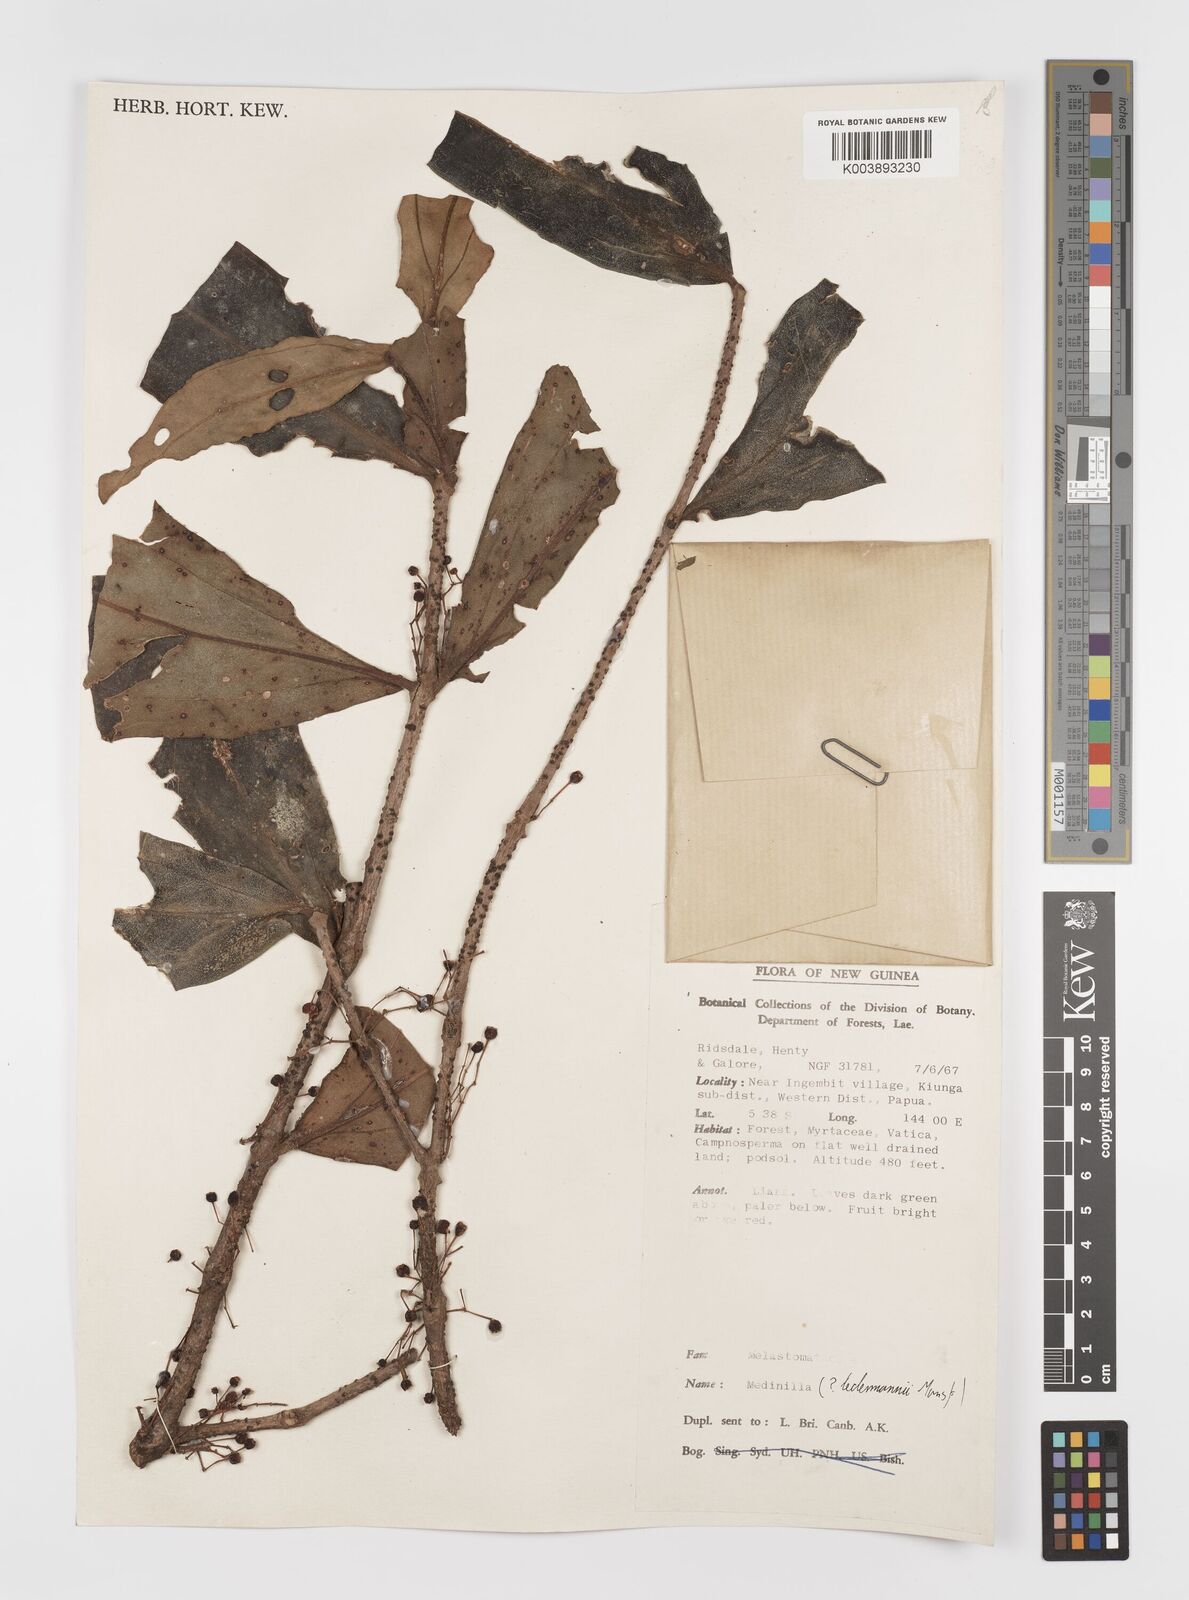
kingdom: Plantae
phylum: Tracheophyta
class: Magnoliopsida
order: Myrtales
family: Melastomataceae
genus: Medinilla
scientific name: Medinilla
